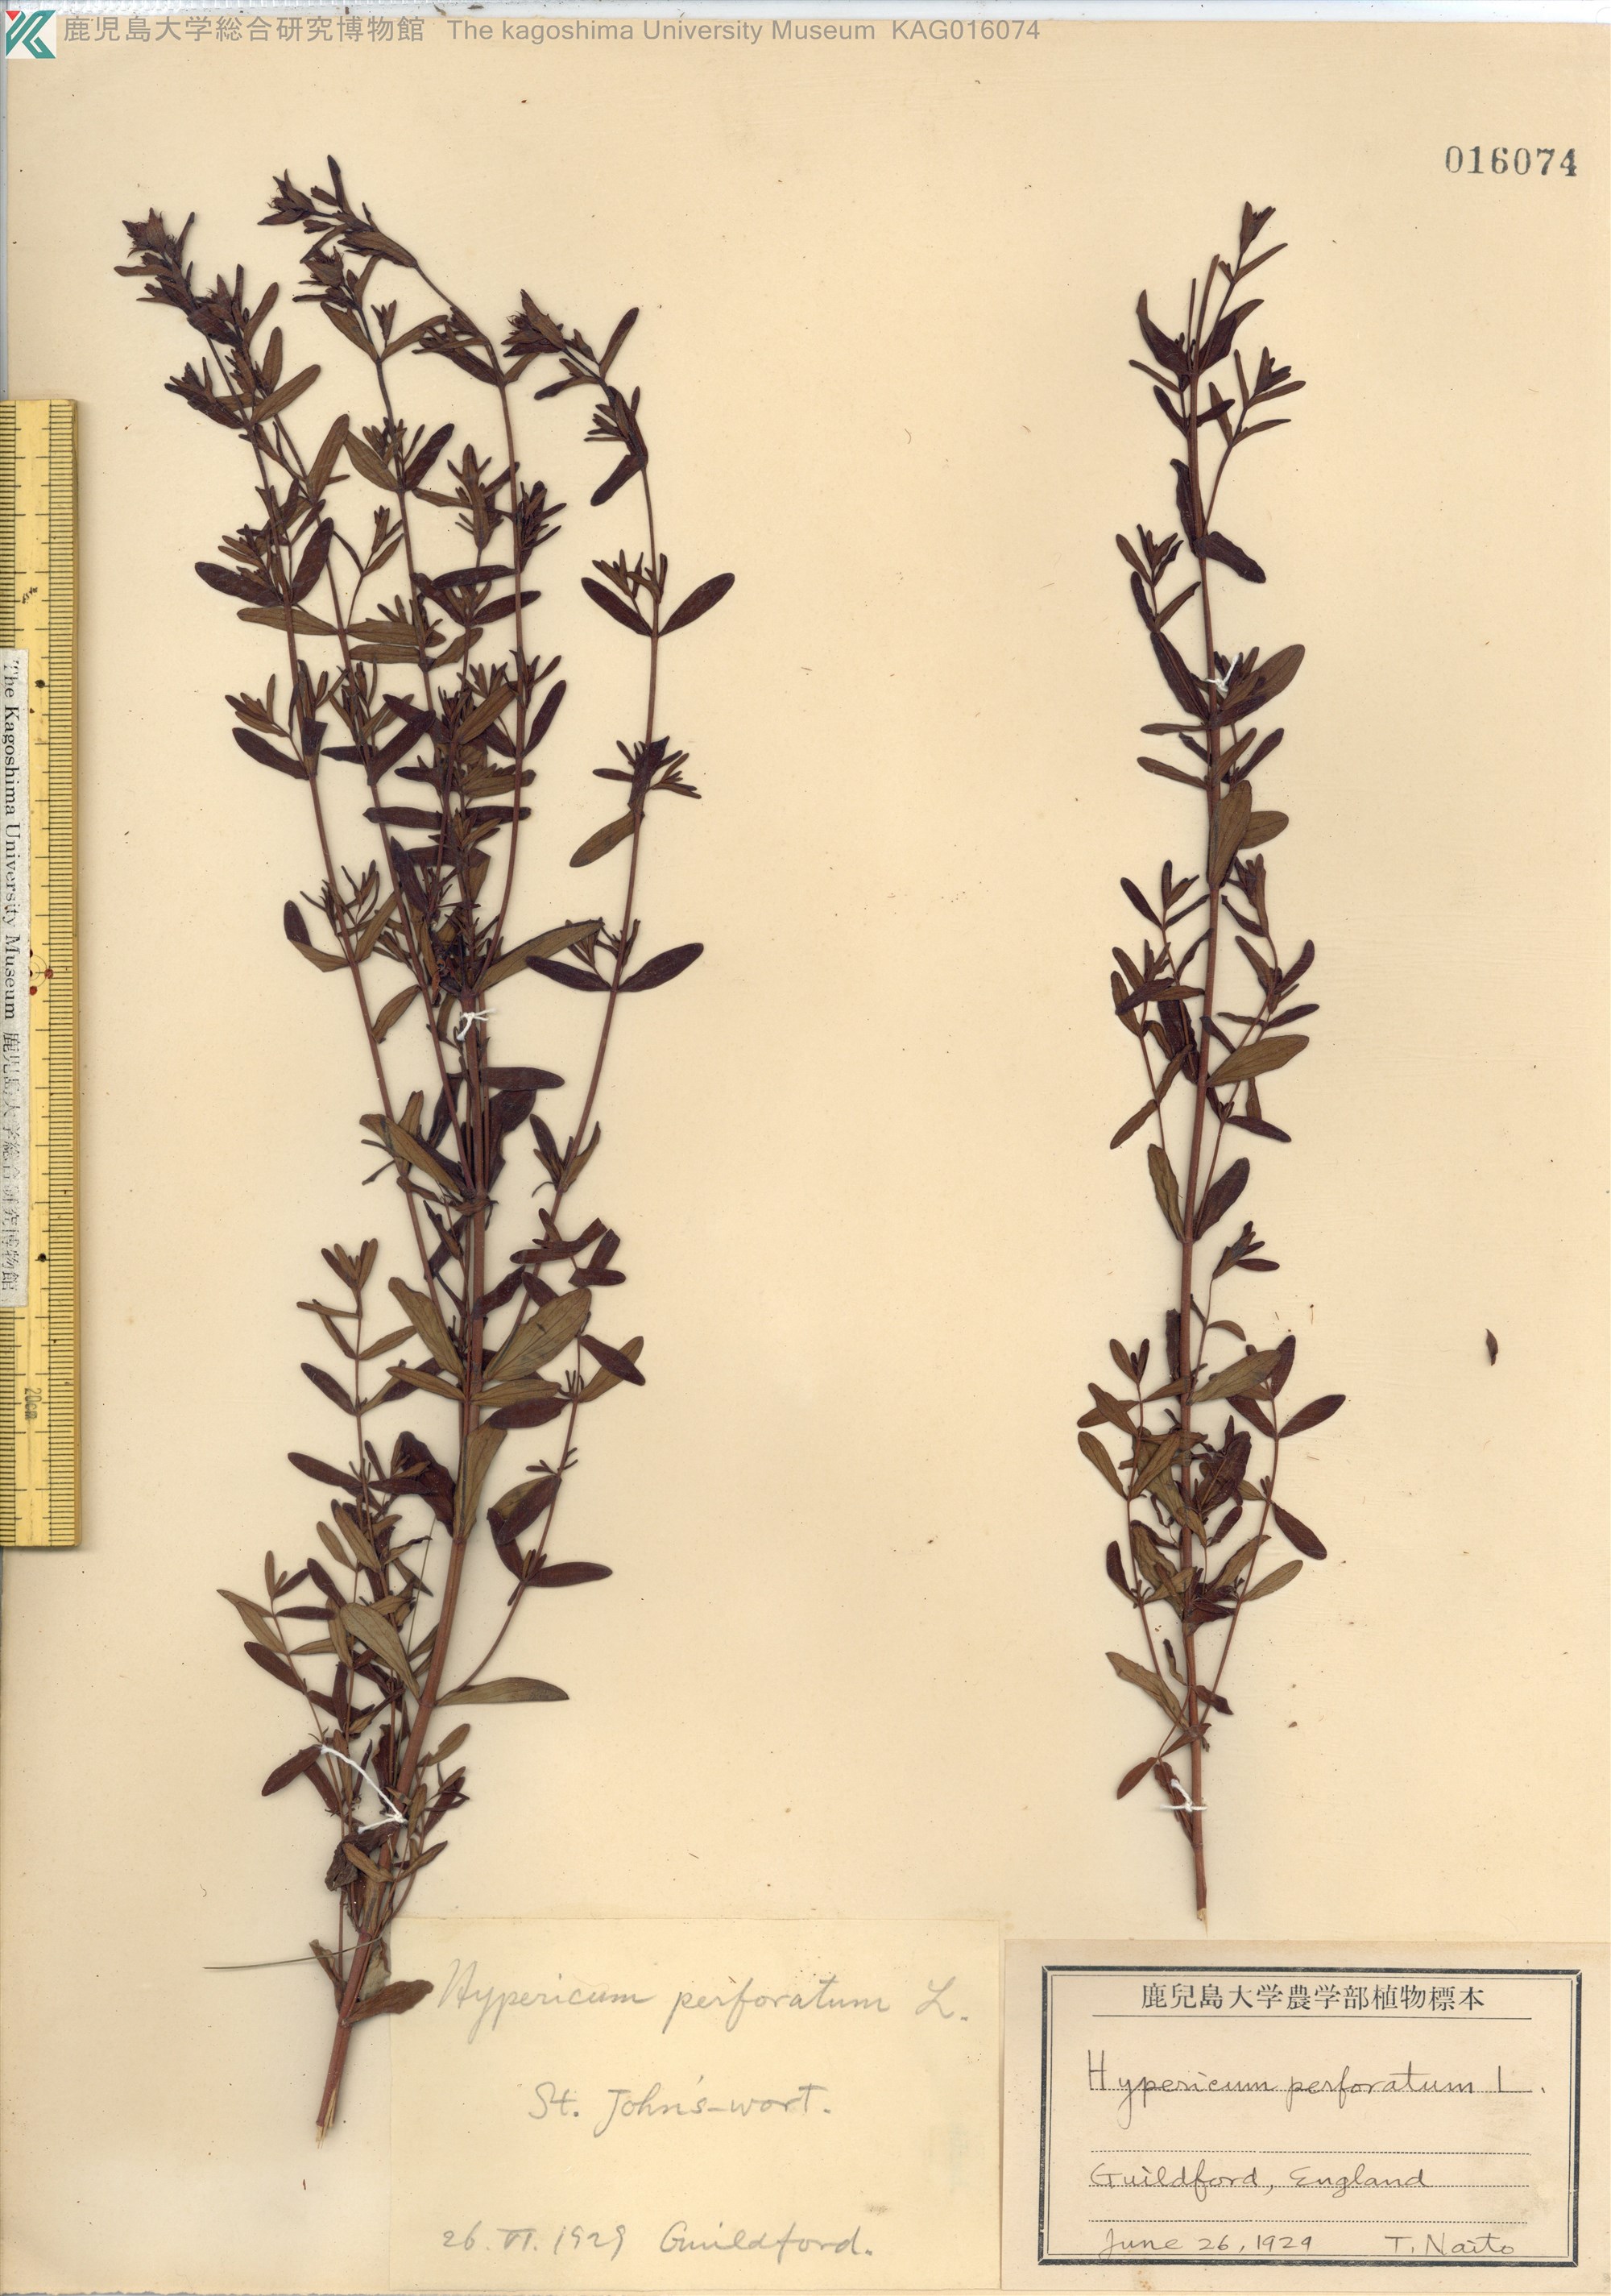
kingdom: Plantae
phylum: Tracheophyta
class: Magnoliopsida
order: Malpighiales
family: Hypericaceae
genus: Hypericum
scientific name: Hypericum perforatum
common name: Common st. johnswort
